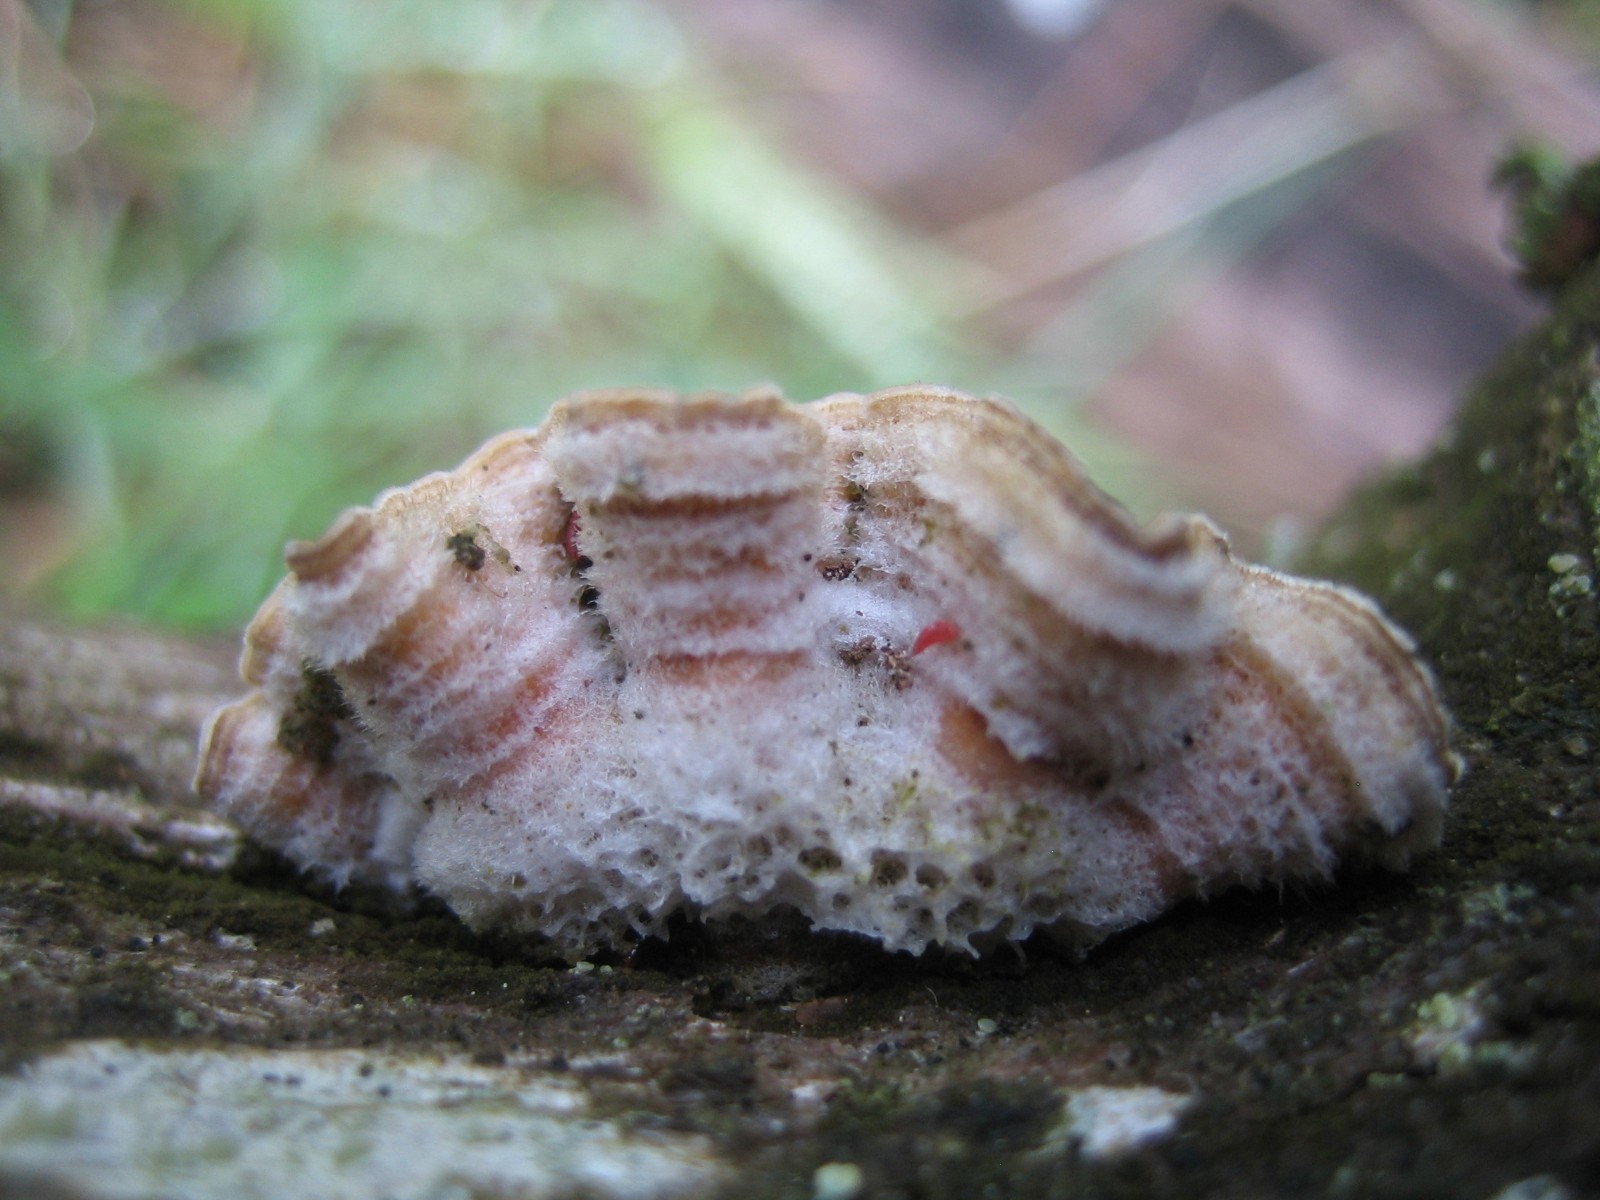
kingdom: Fungi
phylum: Basidiomycota
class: Agaricomycetes
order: Russulales
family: Stereaceae
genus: Stereum
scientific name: Stereum hirsutum
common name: håret lædersvamp
